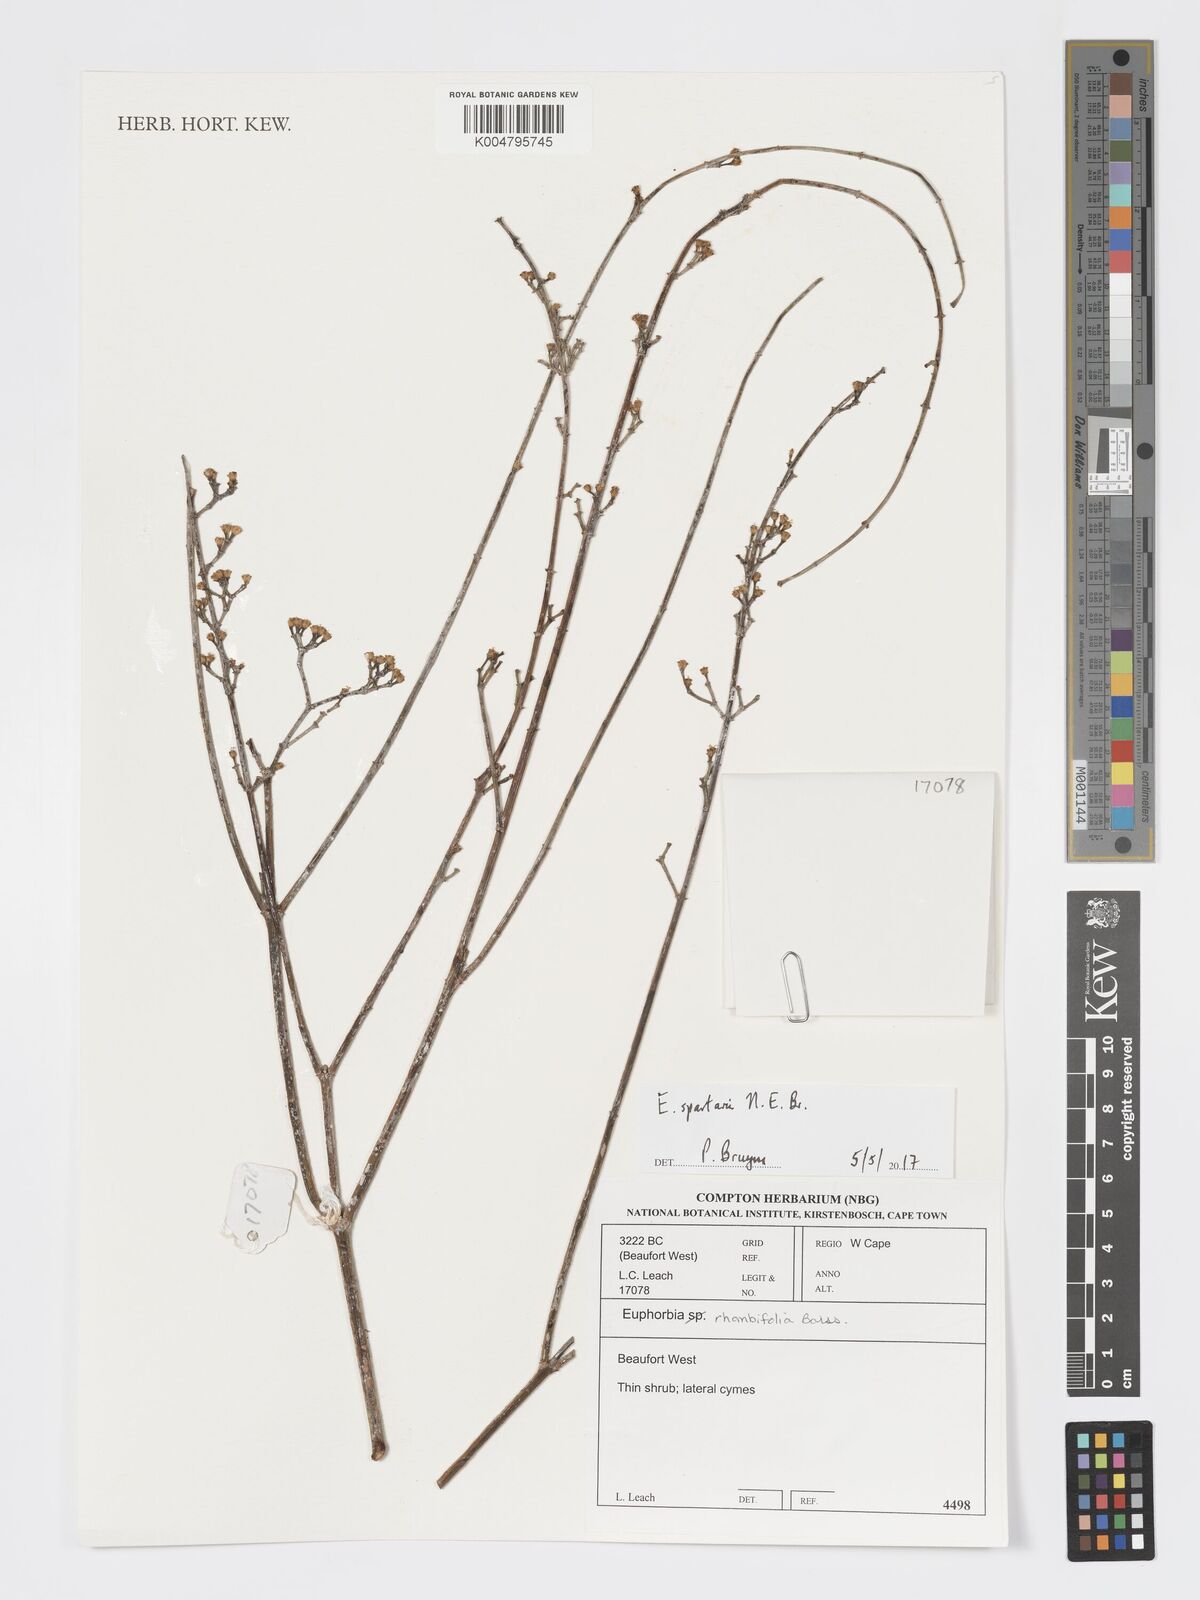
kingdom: Plantae
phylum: Tracheophyta
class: Magnoliopsida
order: Malpighiales
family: Euphorbiaceae
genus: Euphorbia
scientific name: Euphorbia spartaria
